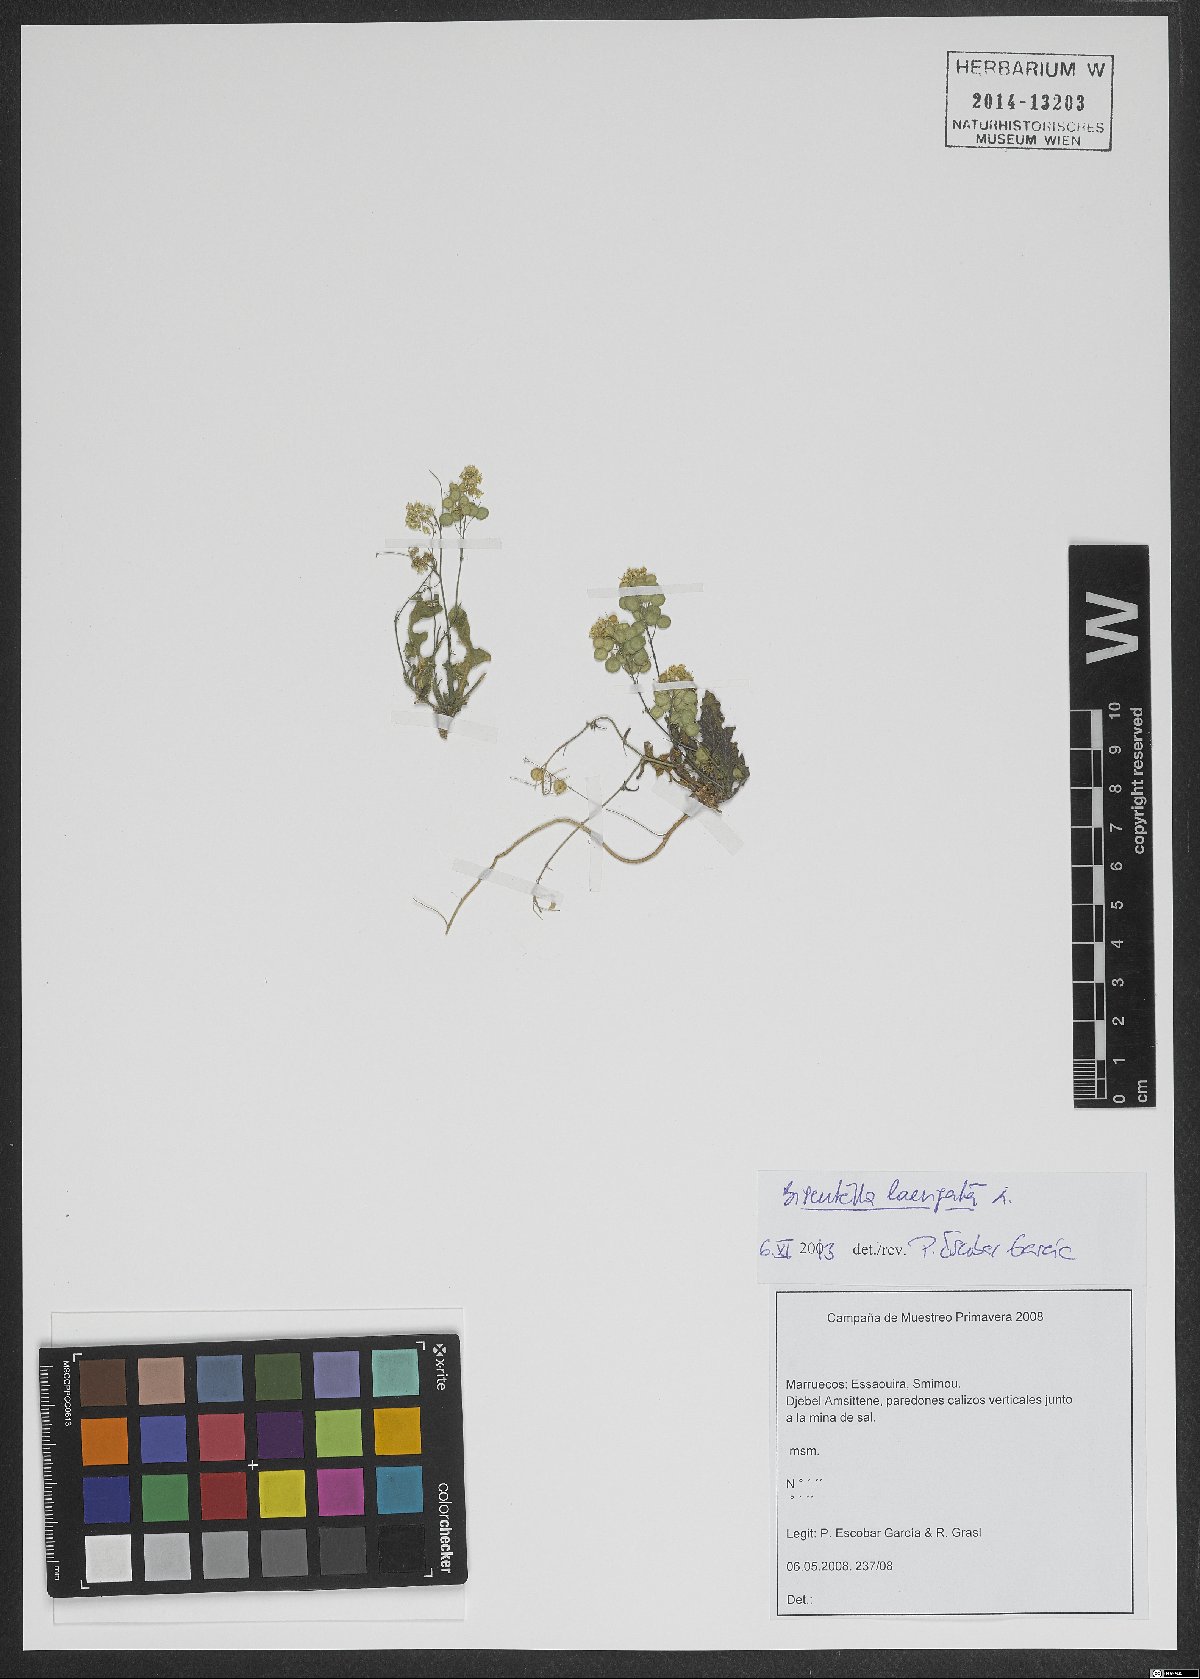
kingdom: Plantae
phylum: Tracheophyta
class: Magnoliopsida
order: Brassicales
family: Brassicaceae
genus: Biscutella
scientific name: Biscutella laevigata
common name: Buckler mustard
